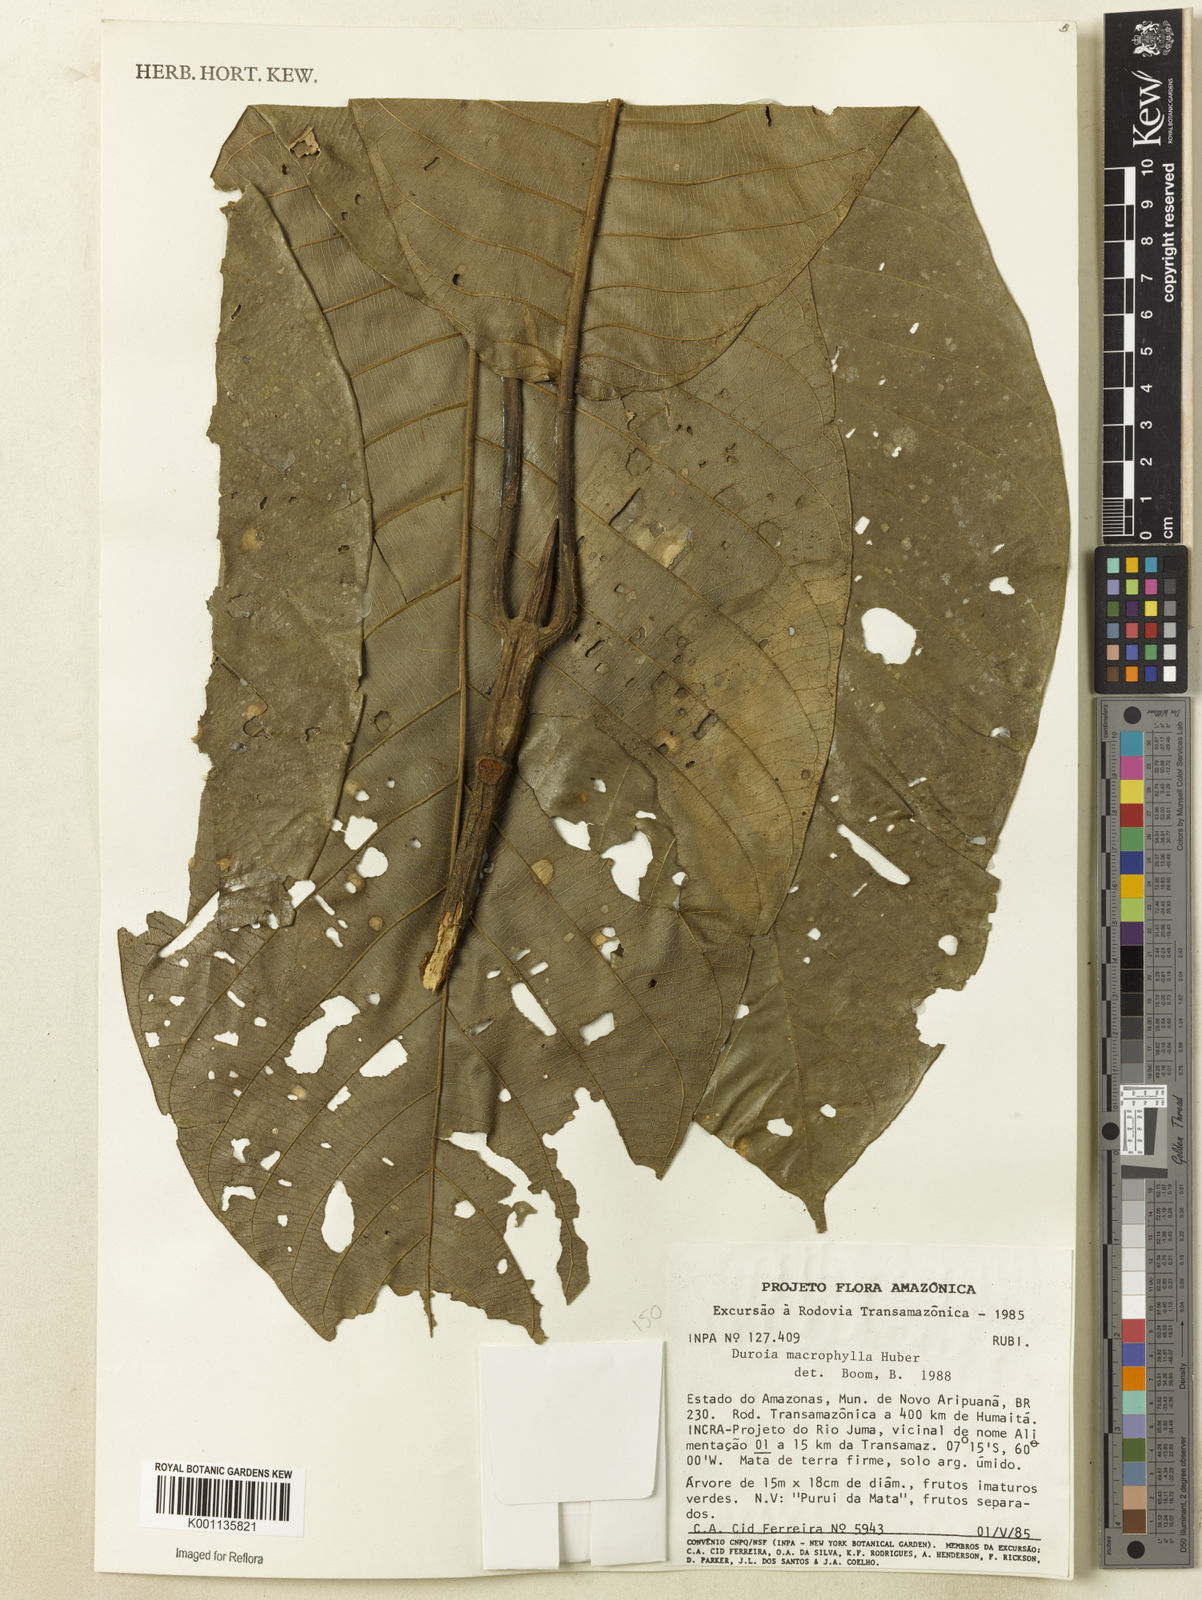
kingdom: Plantae
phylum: Tracheophyta
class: Magnoliopsida
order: Gentianales
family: Rubiaceae
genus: Duroia
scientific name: Duroia macrophylla
